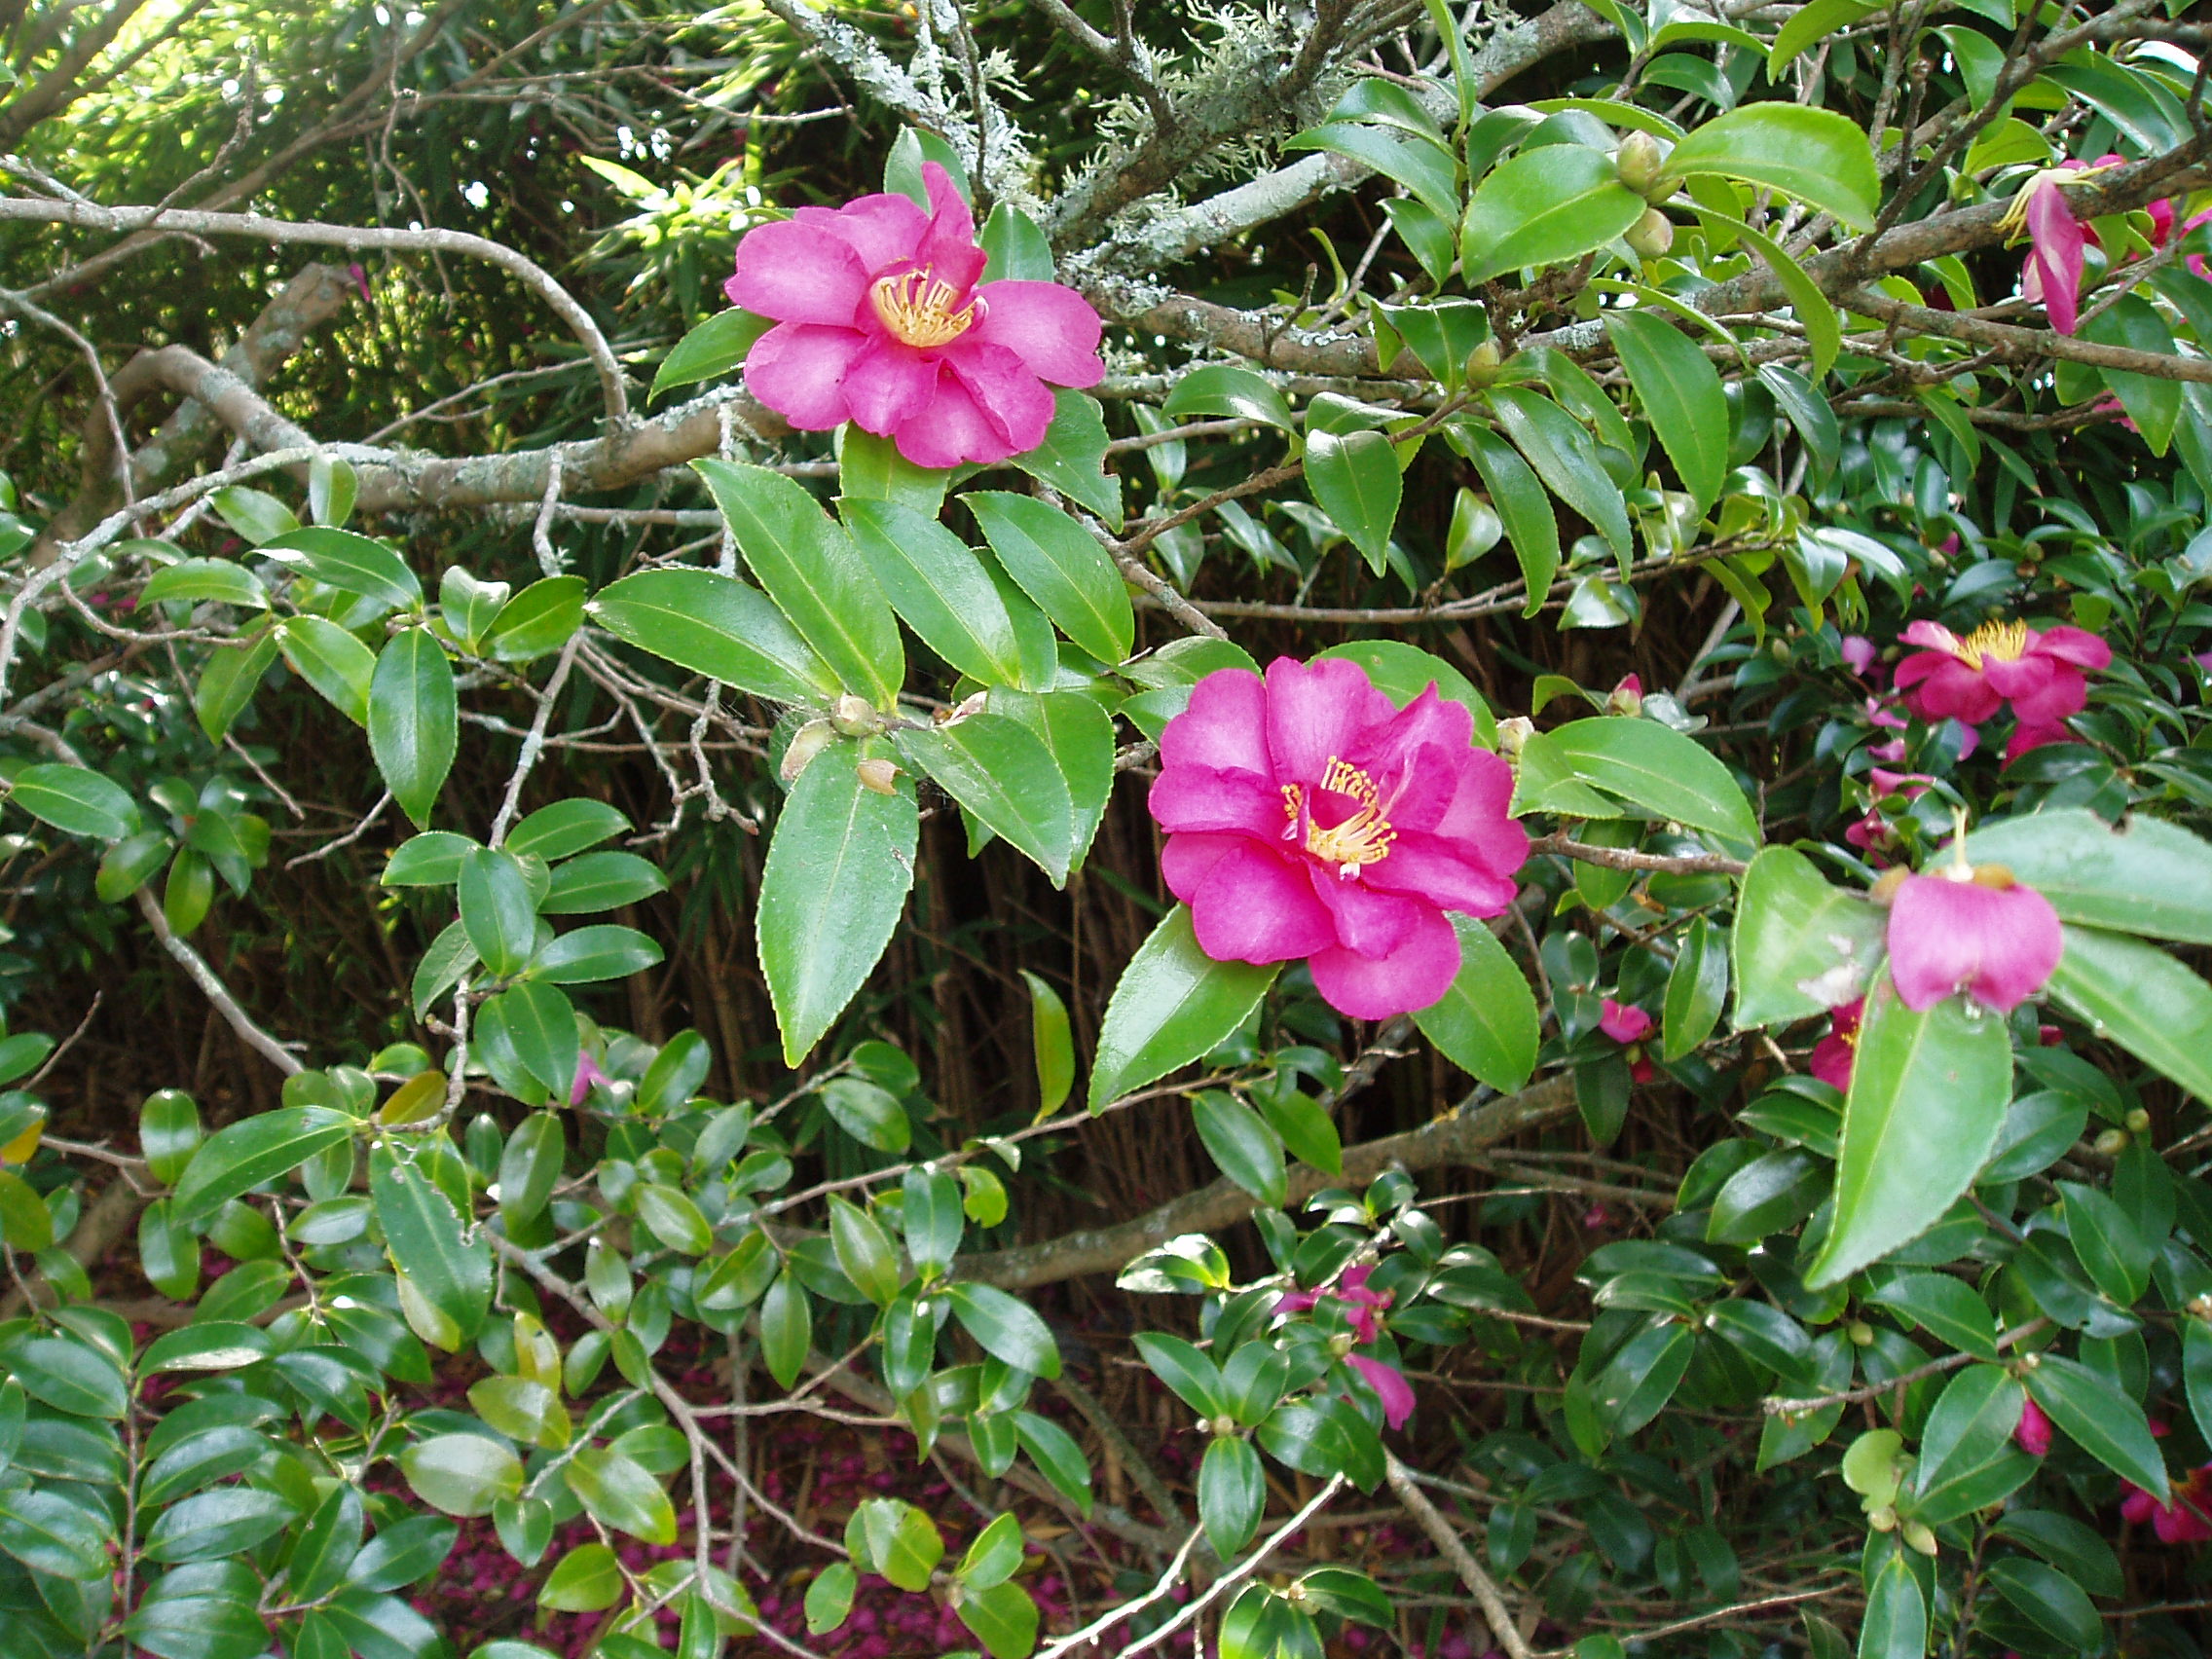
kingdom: Plantae
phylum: Tracheophyta
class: Magnoliopsida
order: Ericales
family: Theaceae
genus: Camellia
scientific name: Camellia sasanqua
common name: Sasanqua camellia
